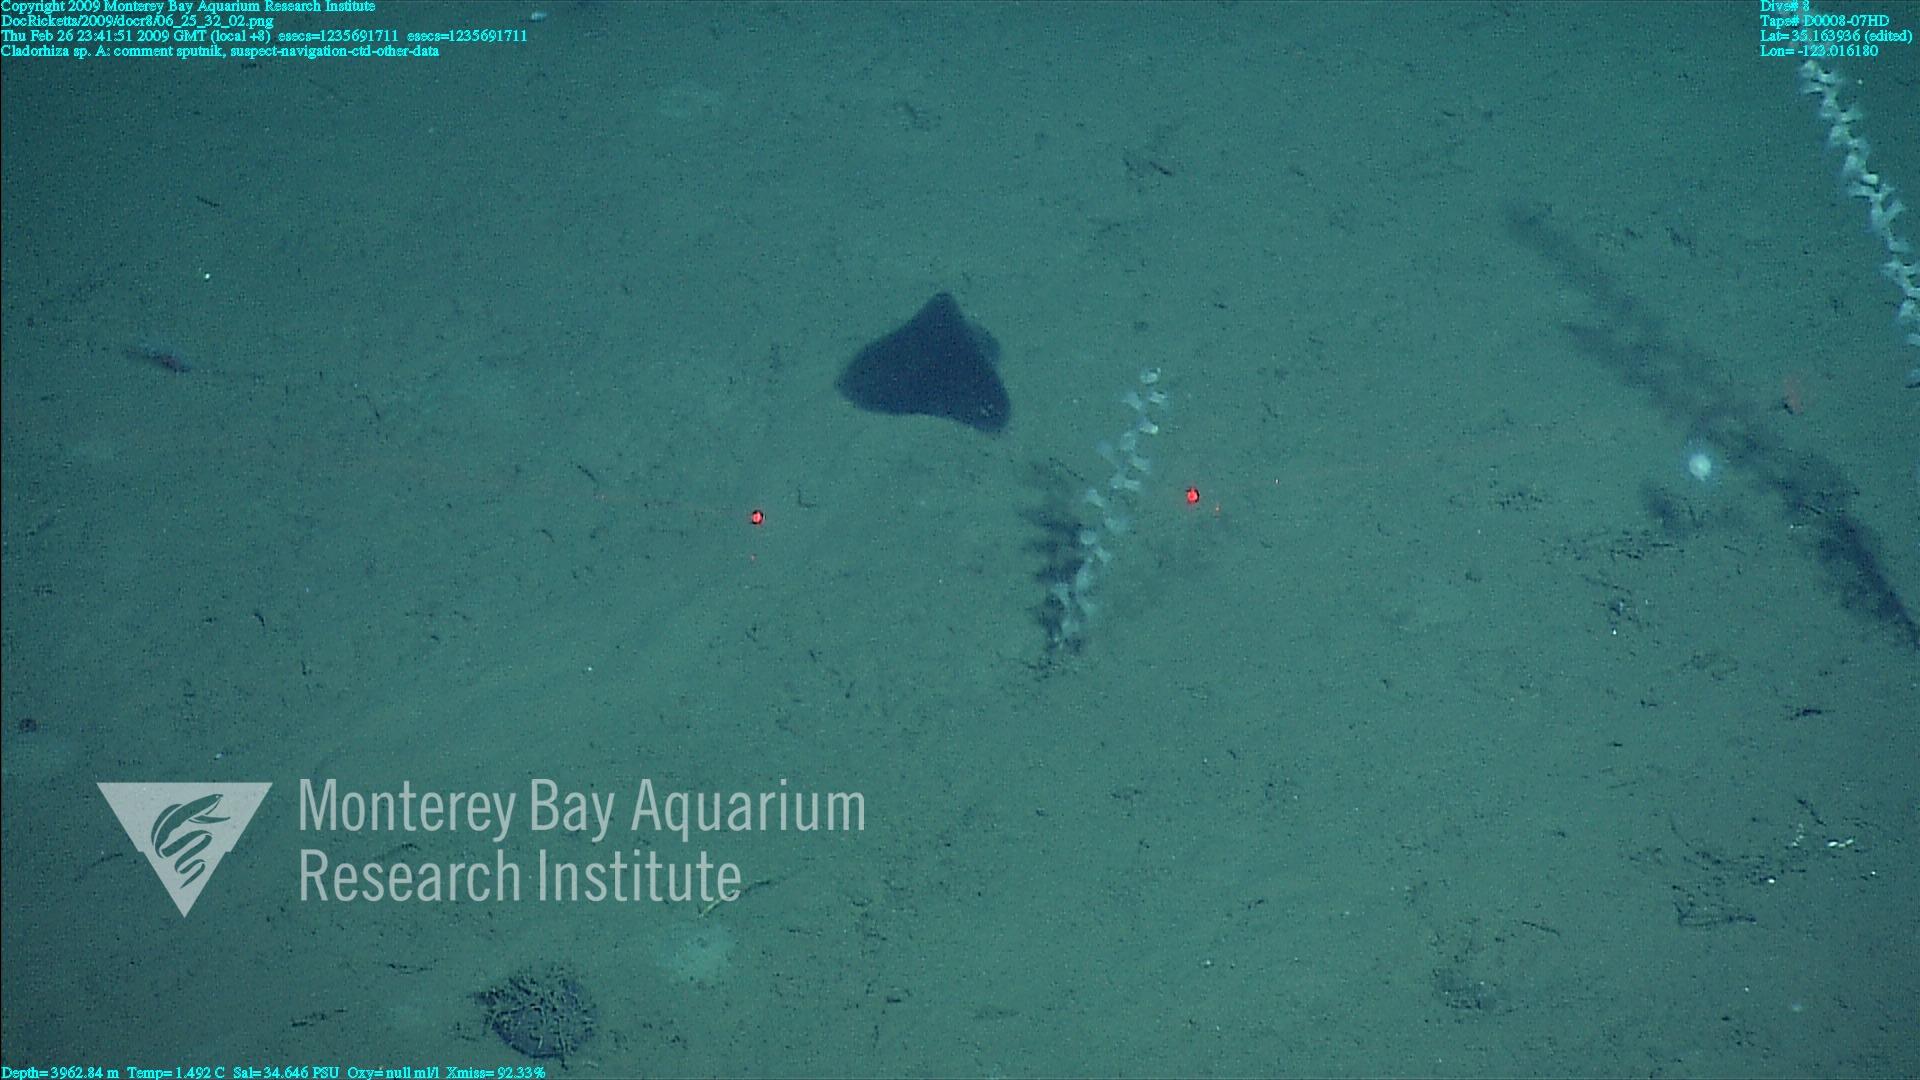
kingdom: Animalia
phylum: Porifera
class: Demospongiae
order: Poecilosclerida
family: Cladorhizidae
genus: Cladorhiza
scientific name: Cladorhiza
